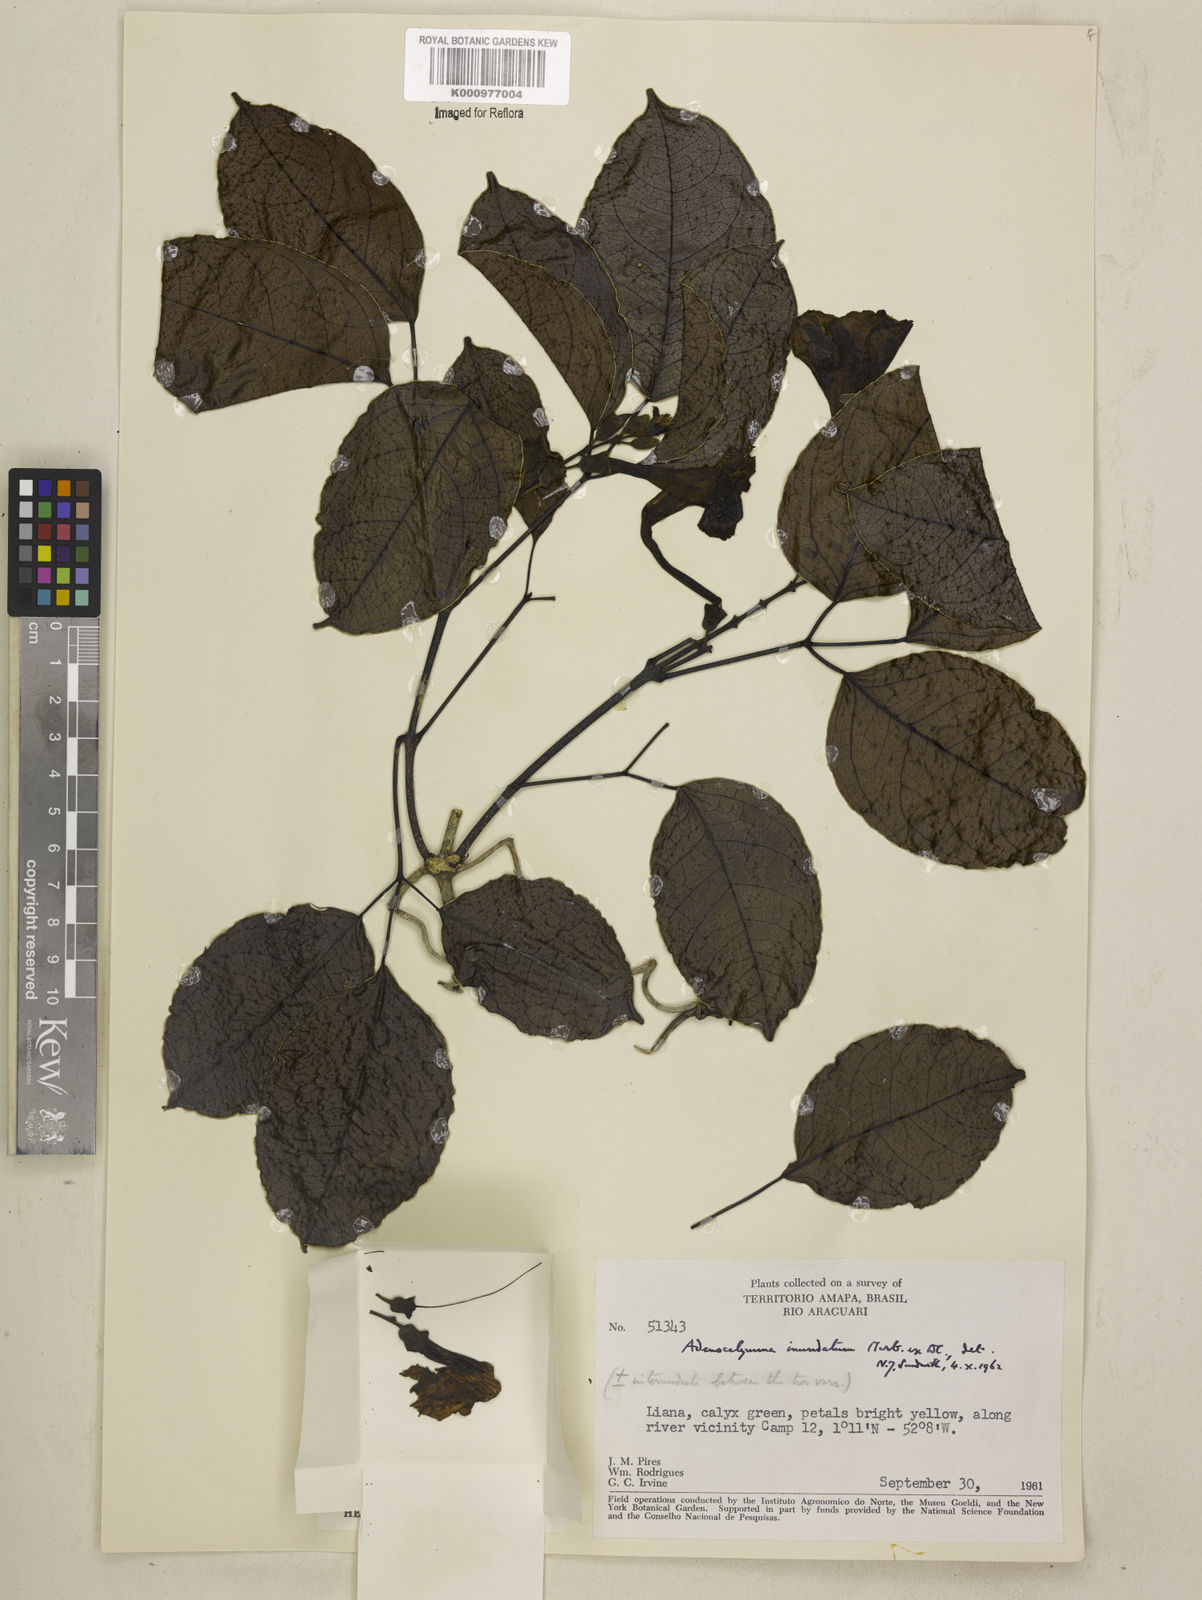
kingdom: Plantae
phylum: Tracheophyta
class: Magnoliopsida
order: Lamiales
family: Bignoniaceae
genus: Adenocalymma
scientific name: Adenocalymma inundatum
